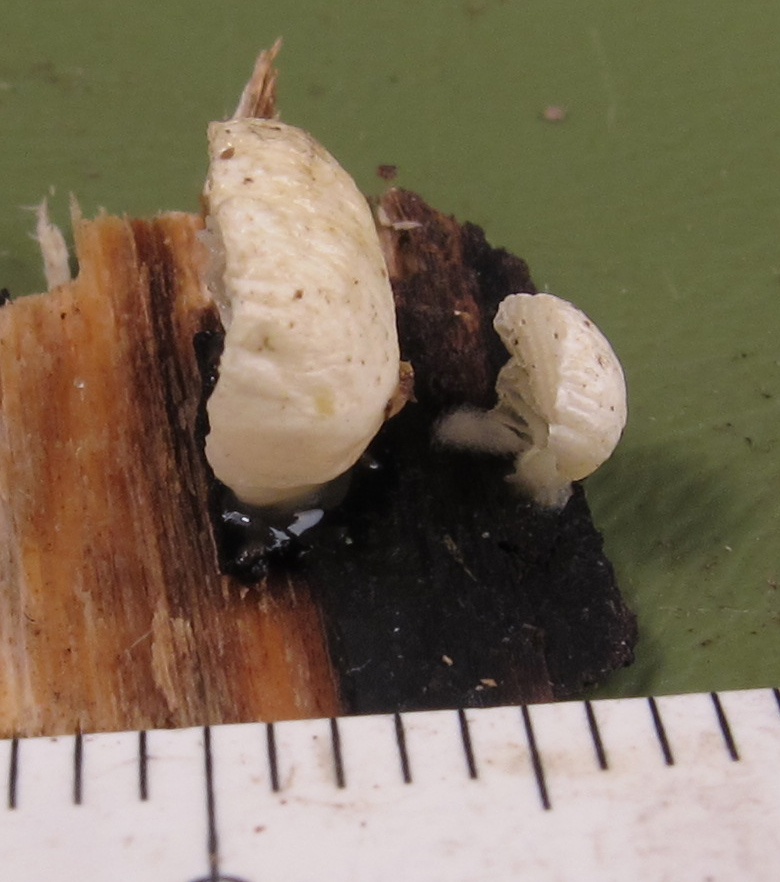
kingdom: Fungi
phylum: Basidiomycota
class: Agaricomycetes
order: Agaricales
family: Cyphellaceae
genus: Cheimonophyllum
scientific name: Cheimonophyllum
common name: vifteblad
